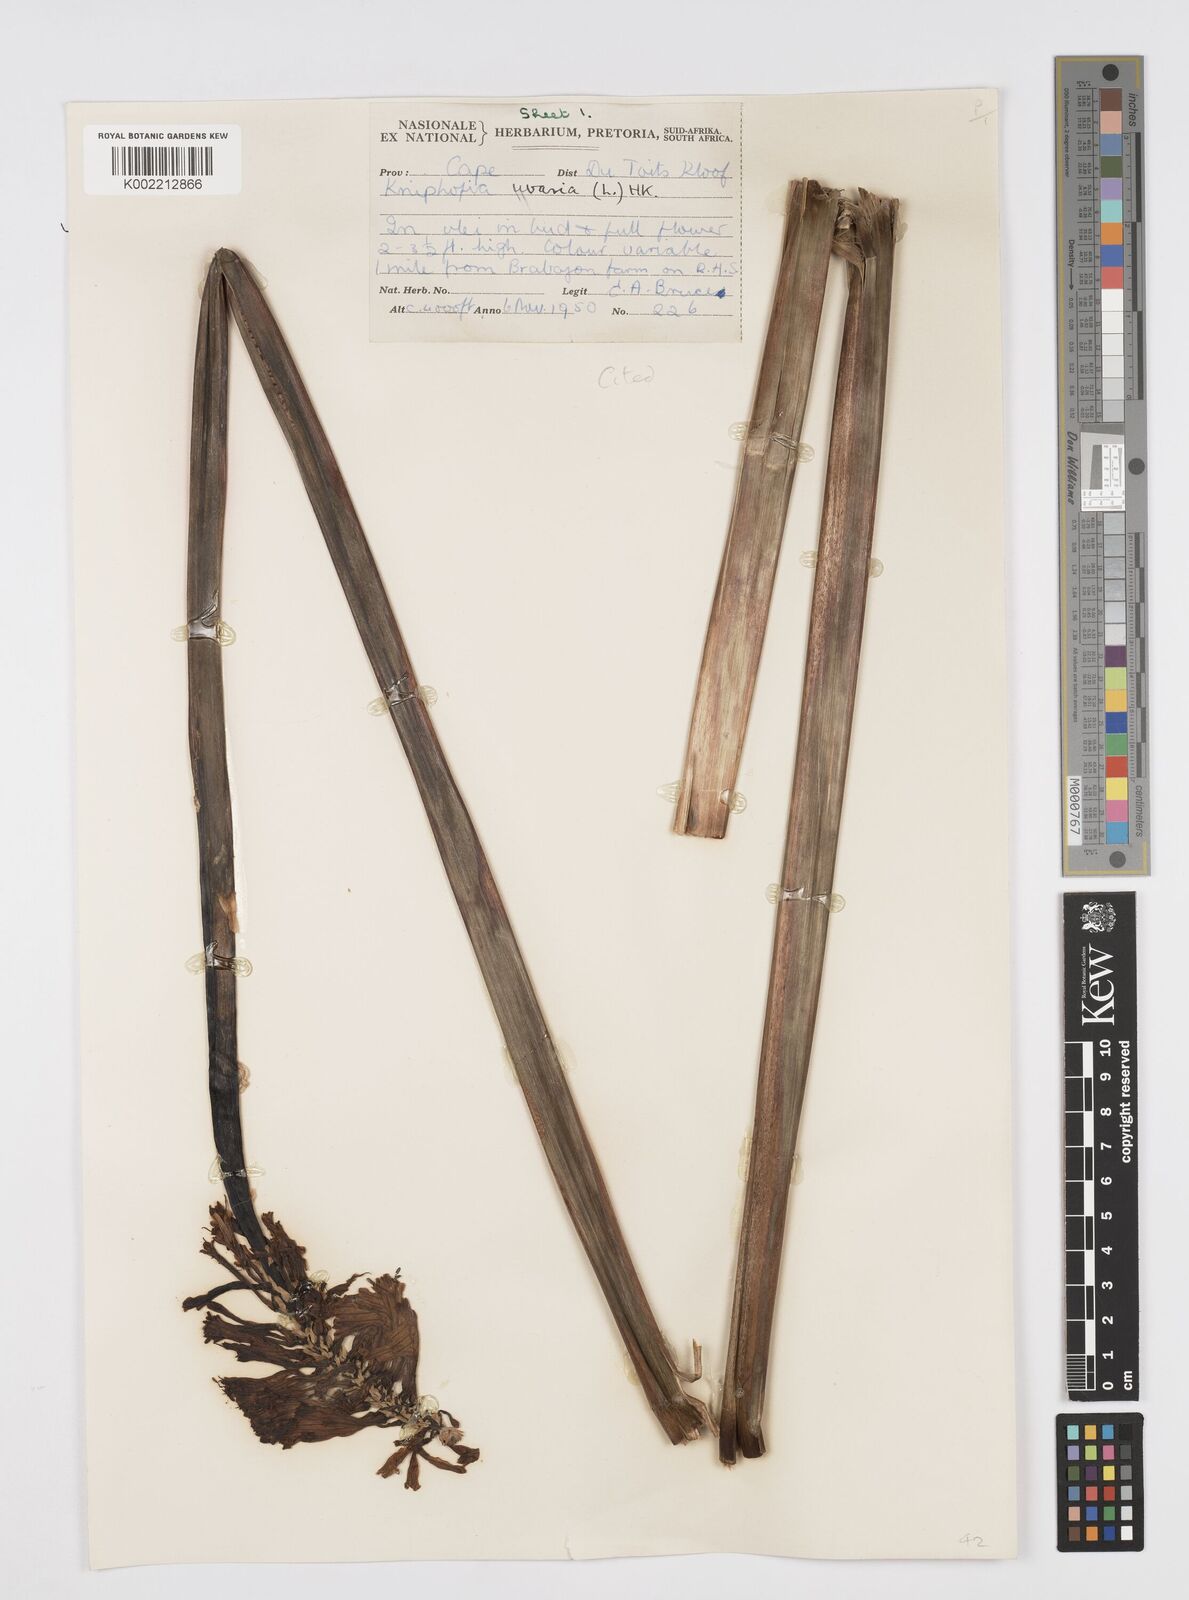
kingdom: Plantae
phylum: Tracheophyta
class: Liliopsida
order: Asparagales
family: Asphodelaceae
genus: Kniphofia
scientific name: Kniphofia uvaria
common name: Red-hot-poker
